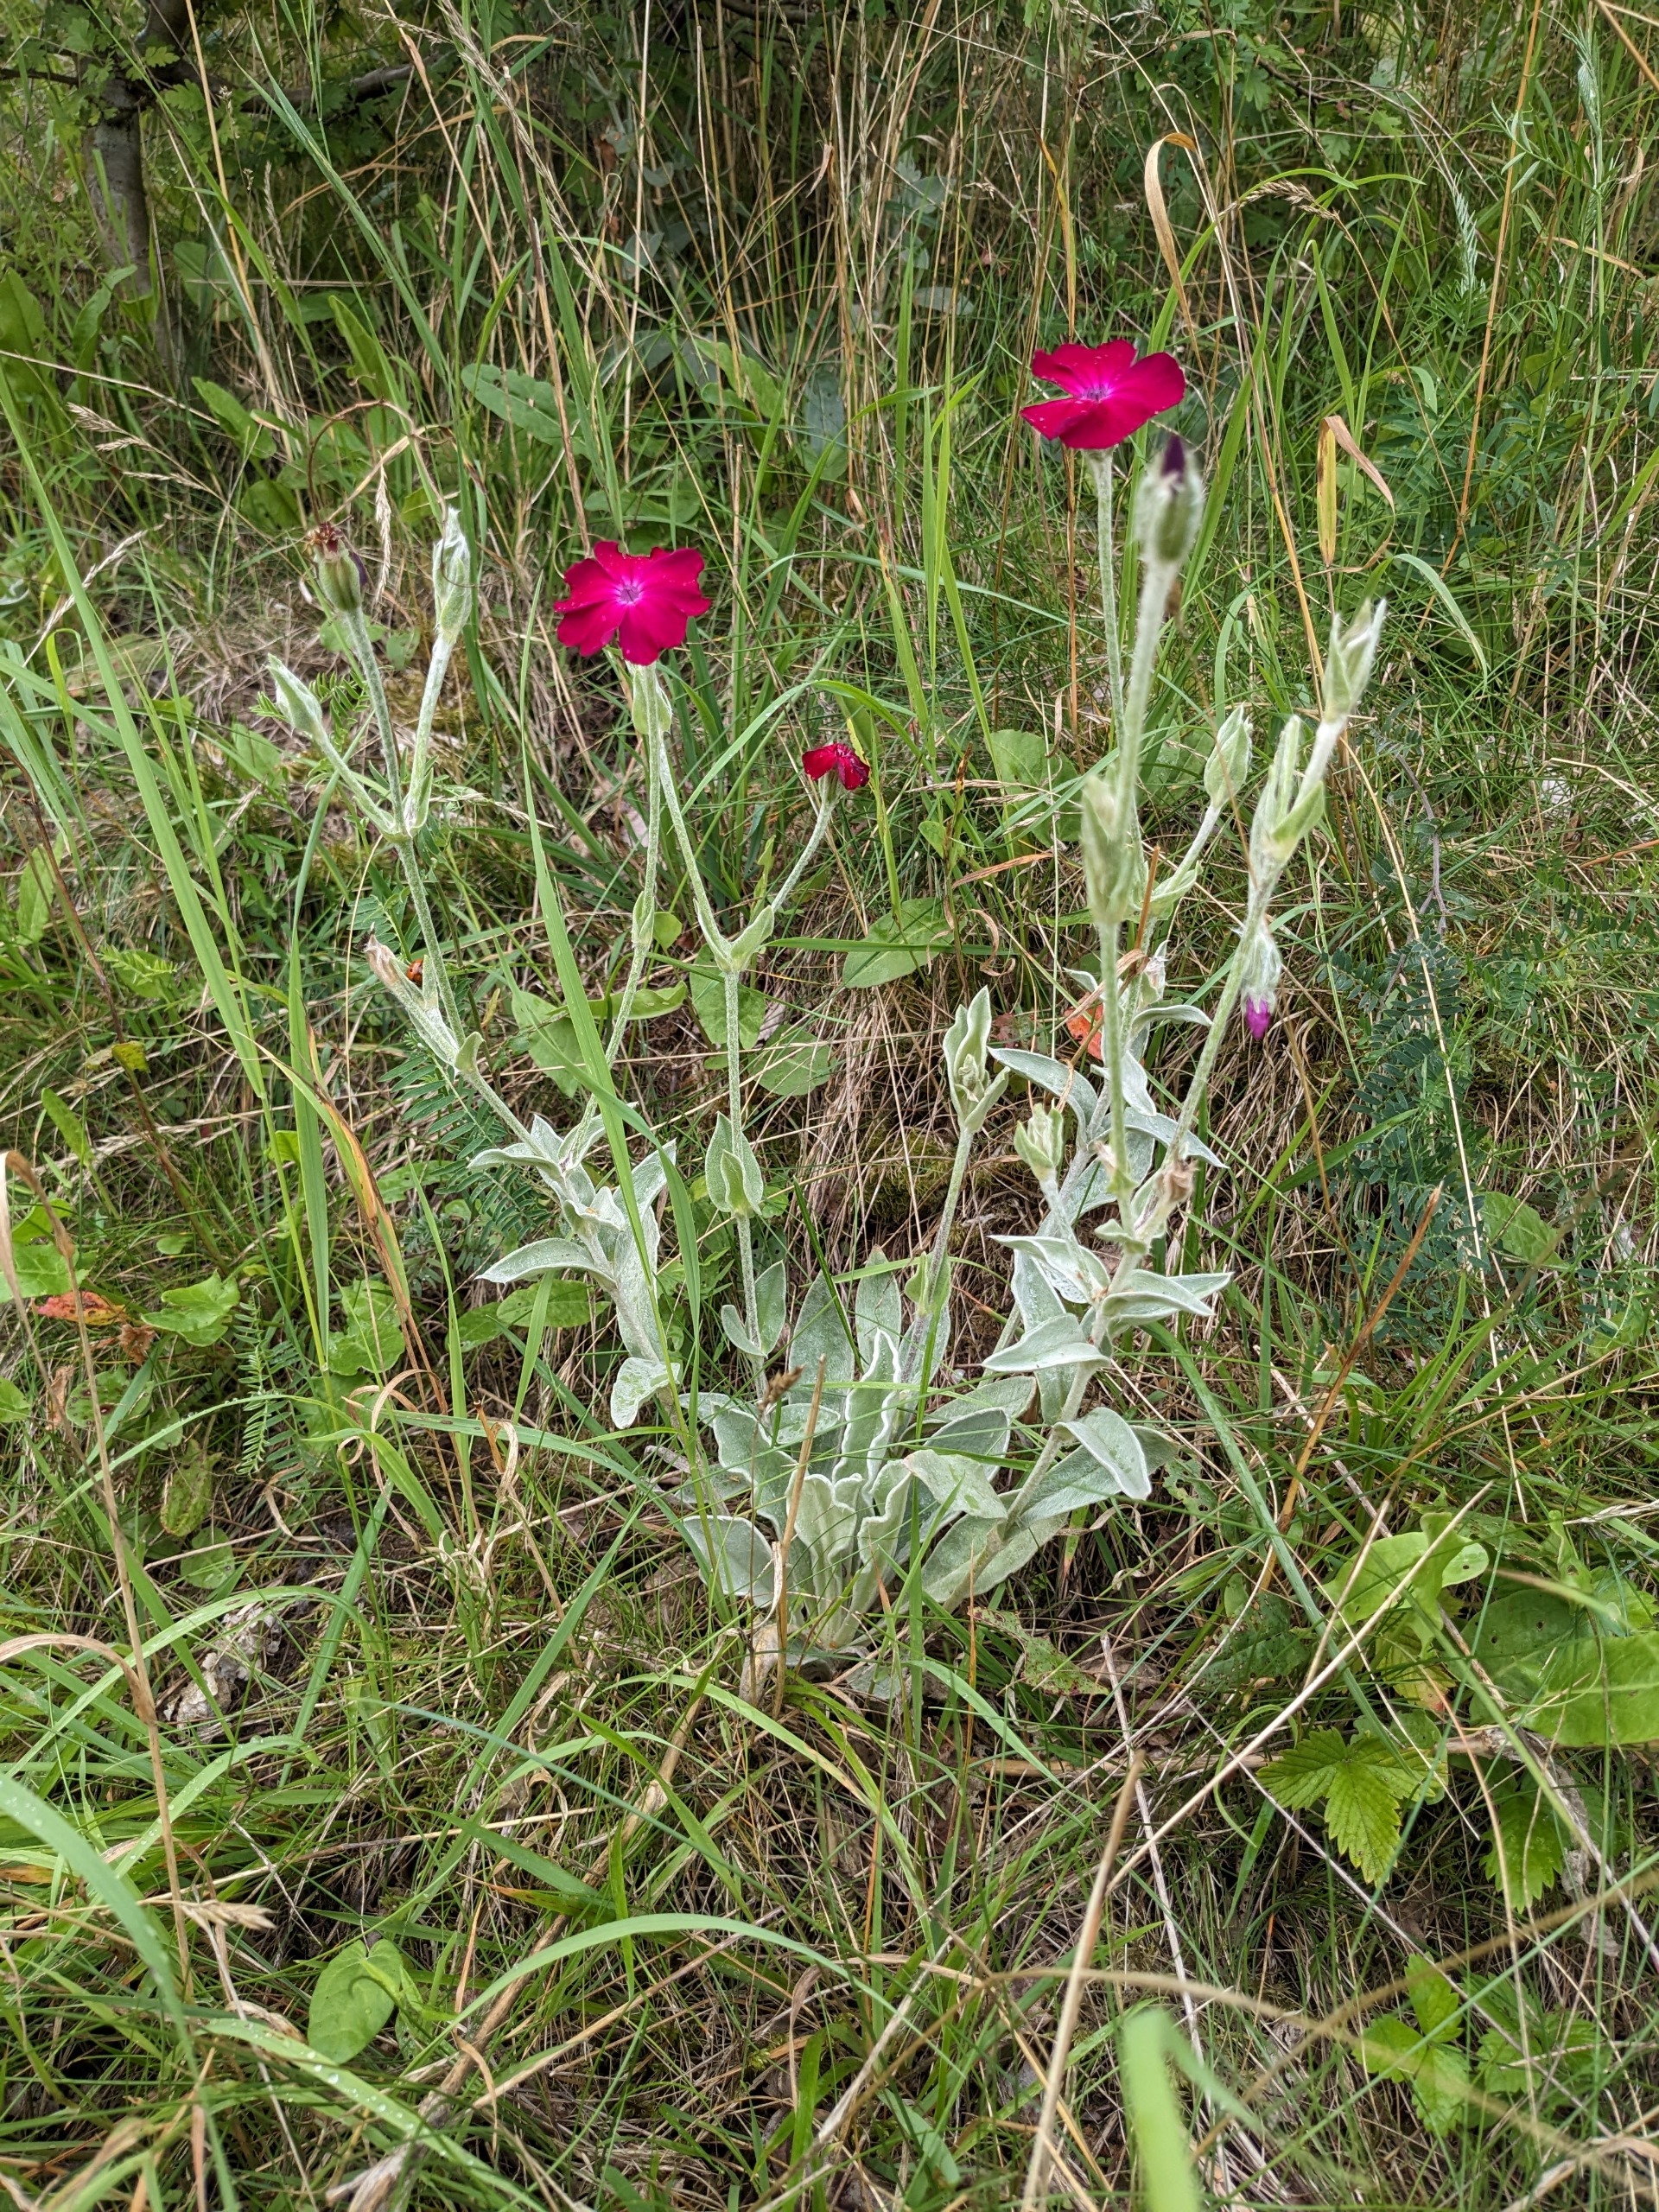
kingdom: Plantae
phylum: Tracheophyta
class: Magnoliopsida
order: Caryophyllales
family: Caryophyllaceae
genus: Silene
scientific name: Silene coronaria
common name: Fiksernellike
